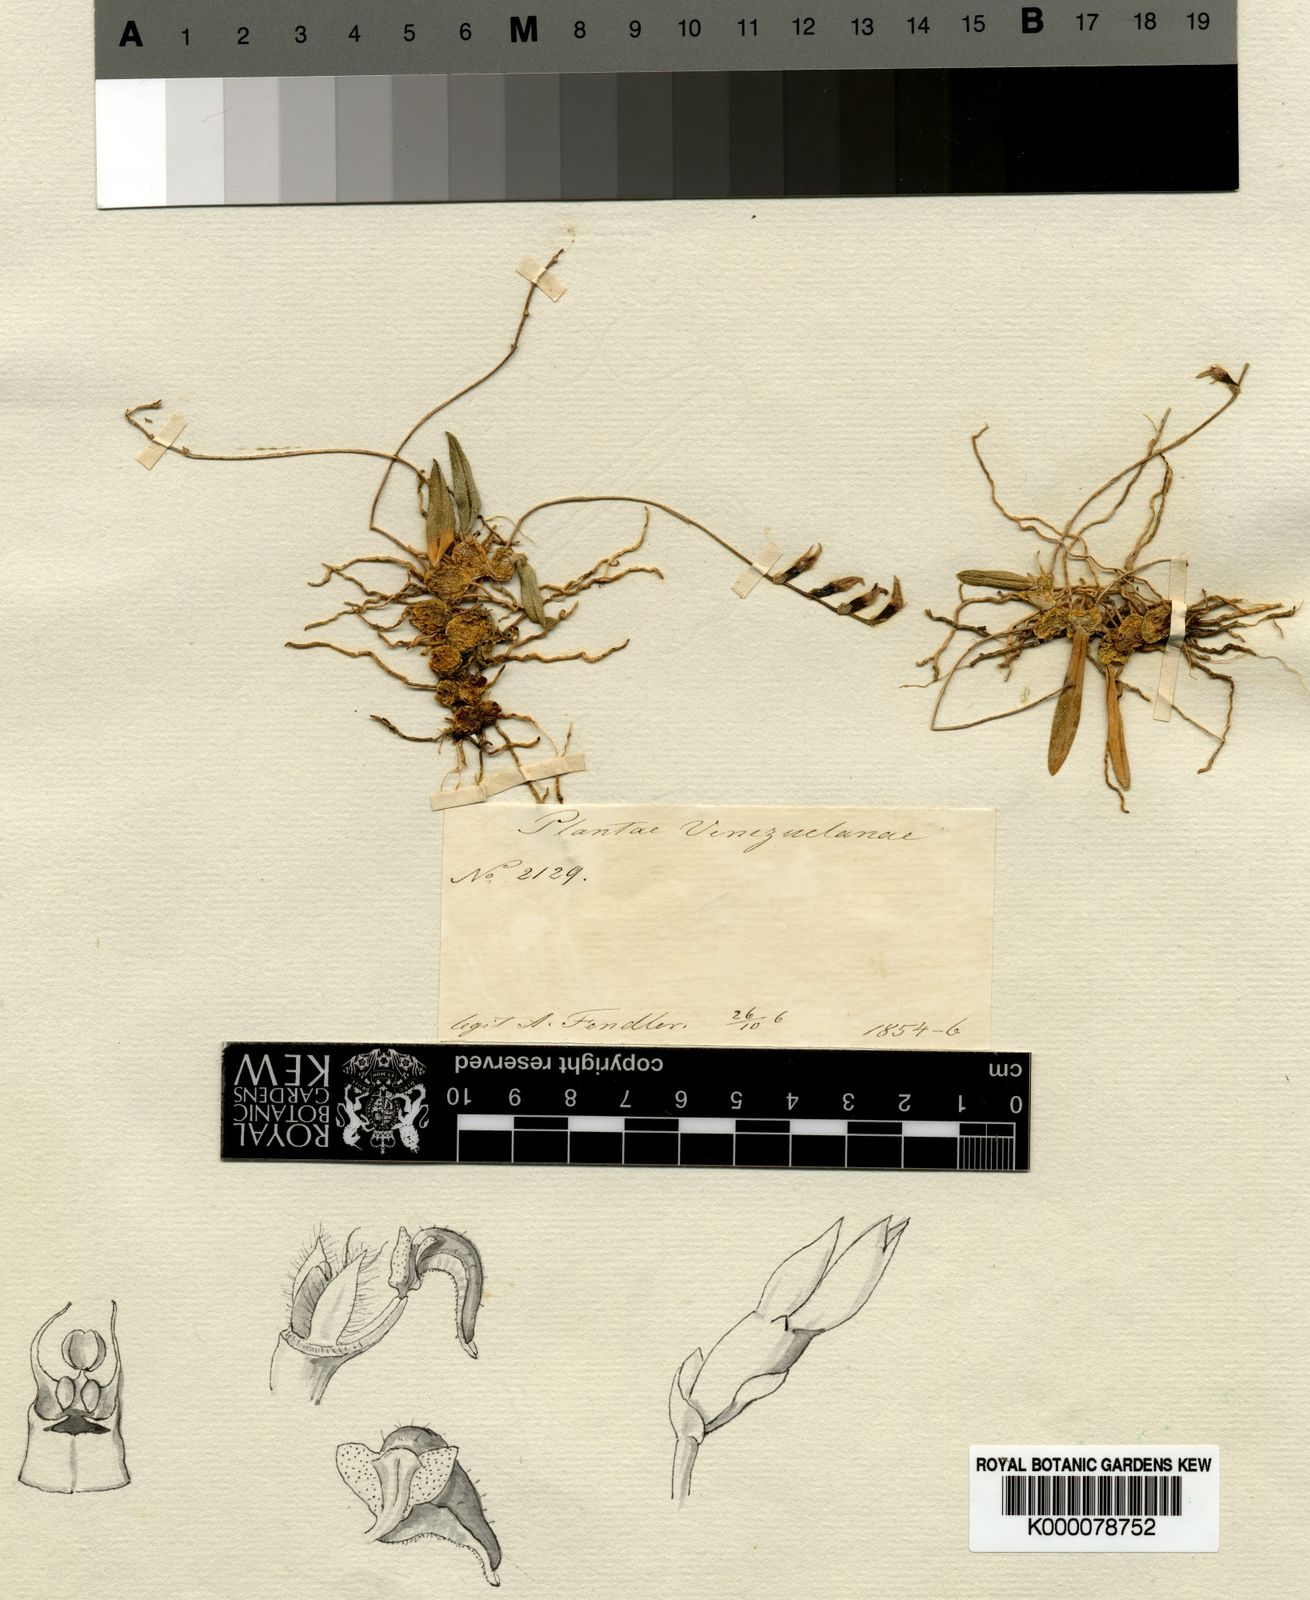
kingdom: Plantae
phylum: Tracheophyta
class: Liliopsida
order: Asparagales
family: Orchidaceae
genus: Bulbophyllum
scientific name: Bulbophyllum fendlerianum
